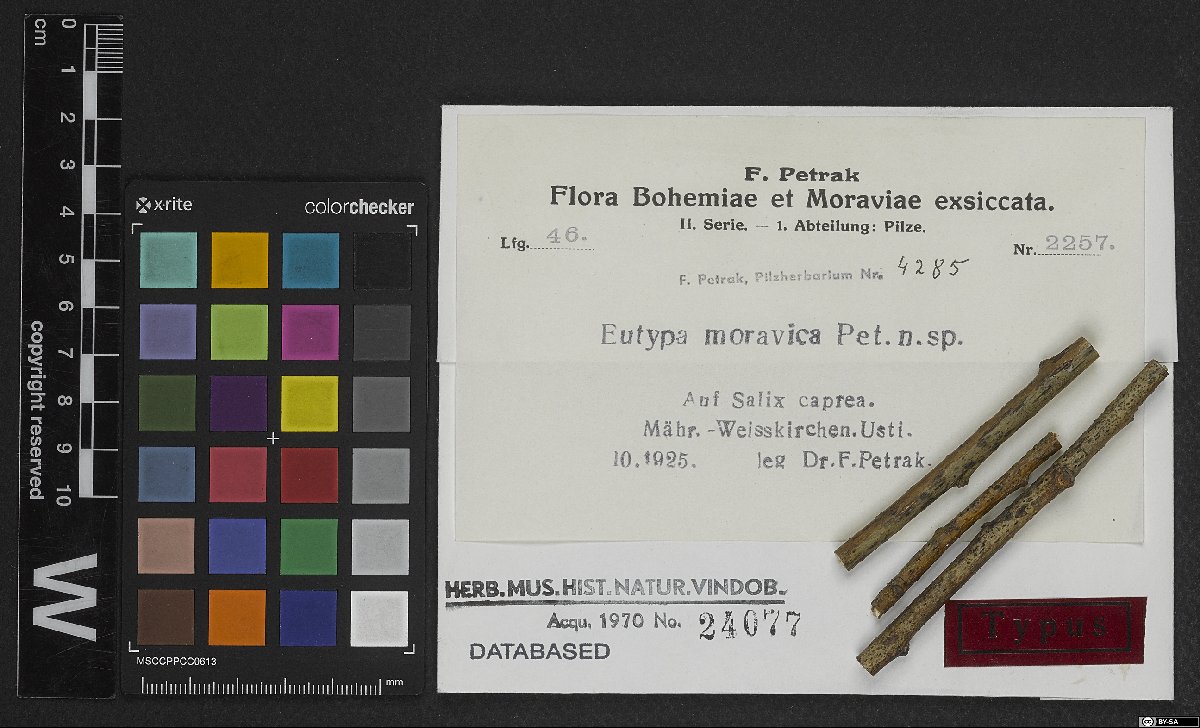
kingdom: Fungi
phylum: Ascomycota
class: Sordariomycetes
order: Xylariales
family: Barrmaeliaceae
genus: Barrmaelia
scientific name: Barrmaelia moravica
